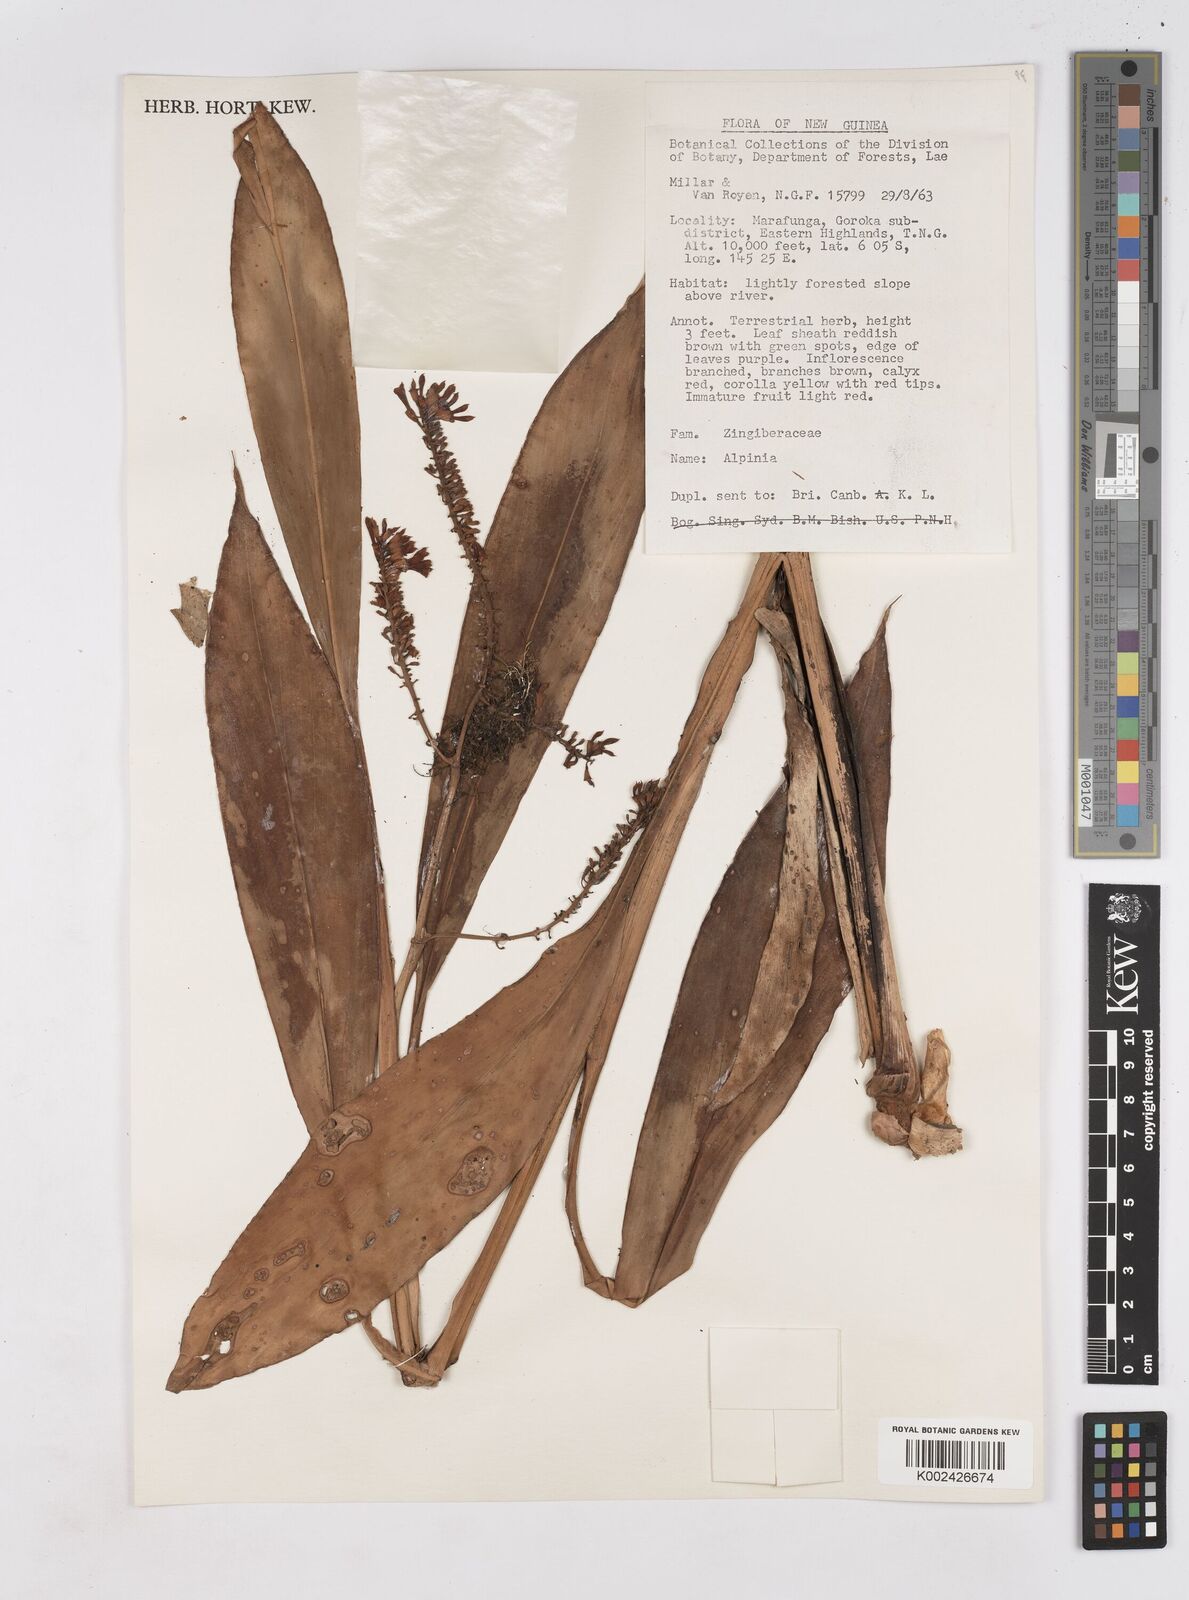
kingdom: Plantae
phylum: Tracheophyta
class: Liliopsida
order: Zingiberales
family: Zingiberaceae
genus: Riedelia
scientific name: Riedelia
